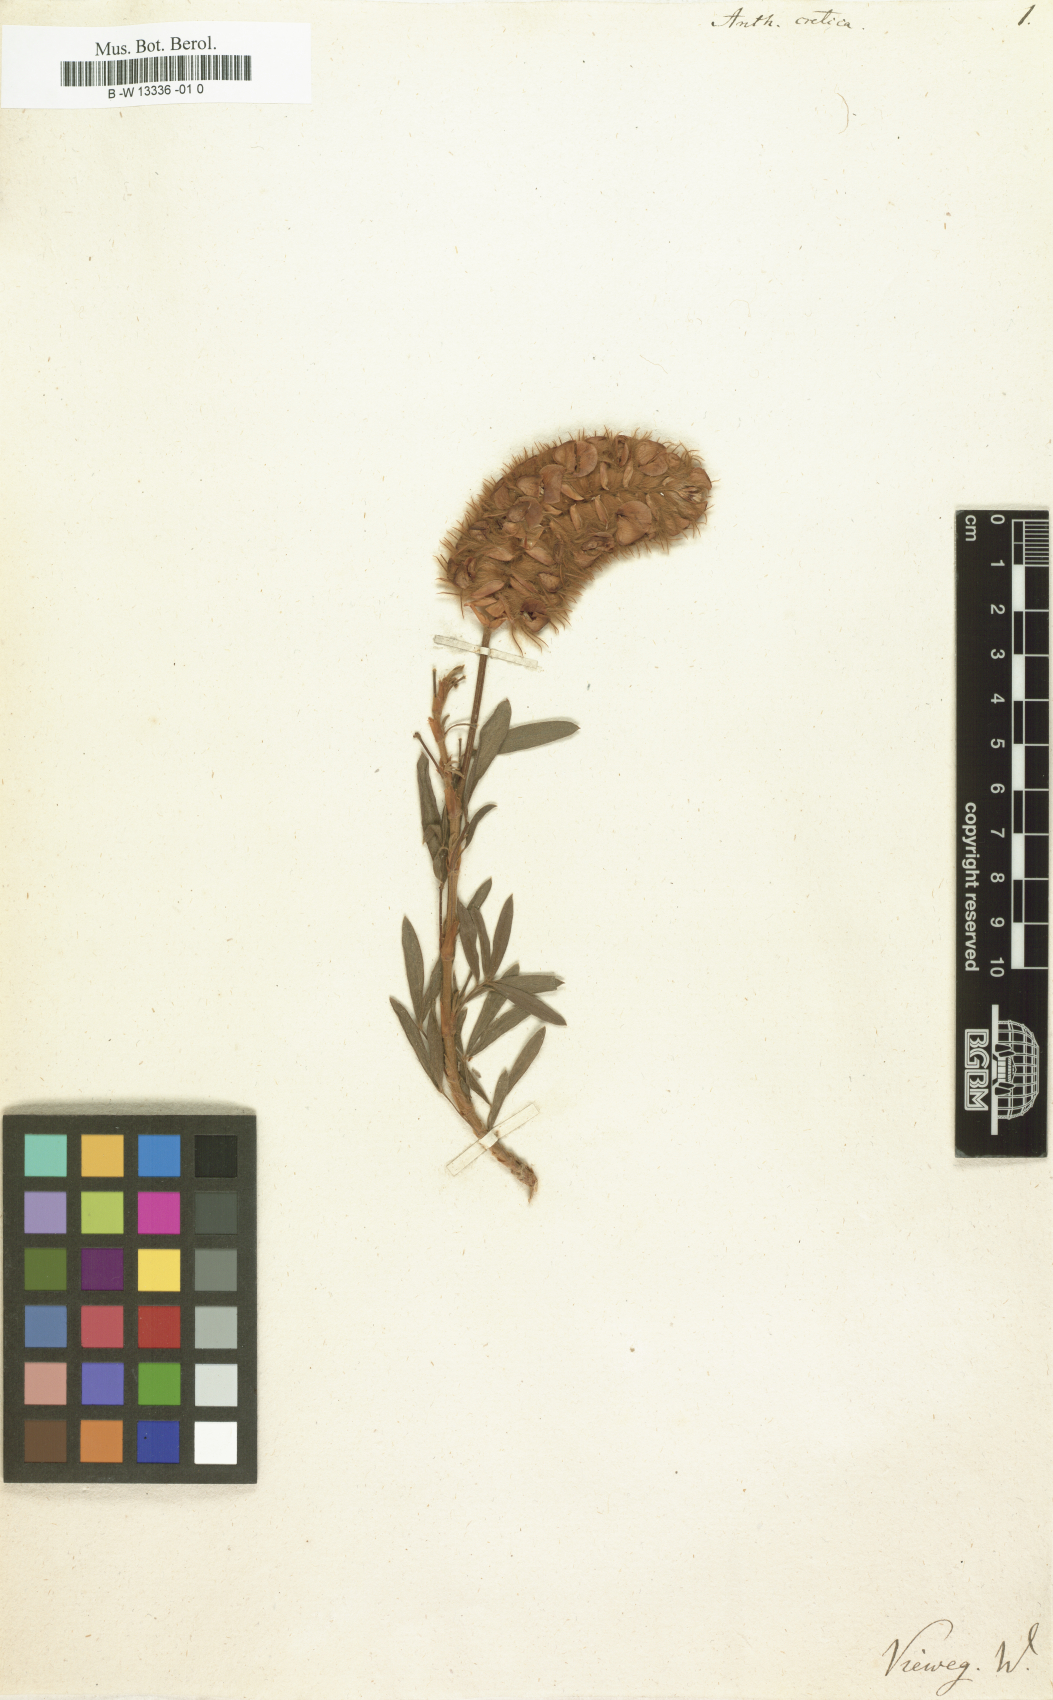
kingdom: Plantae
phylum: Tracheophyta
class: Magnoliopsida
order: Fabales
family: Fabaceae
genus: Ebenus
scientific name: Ebenus cretica
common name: Cretan silver bush
